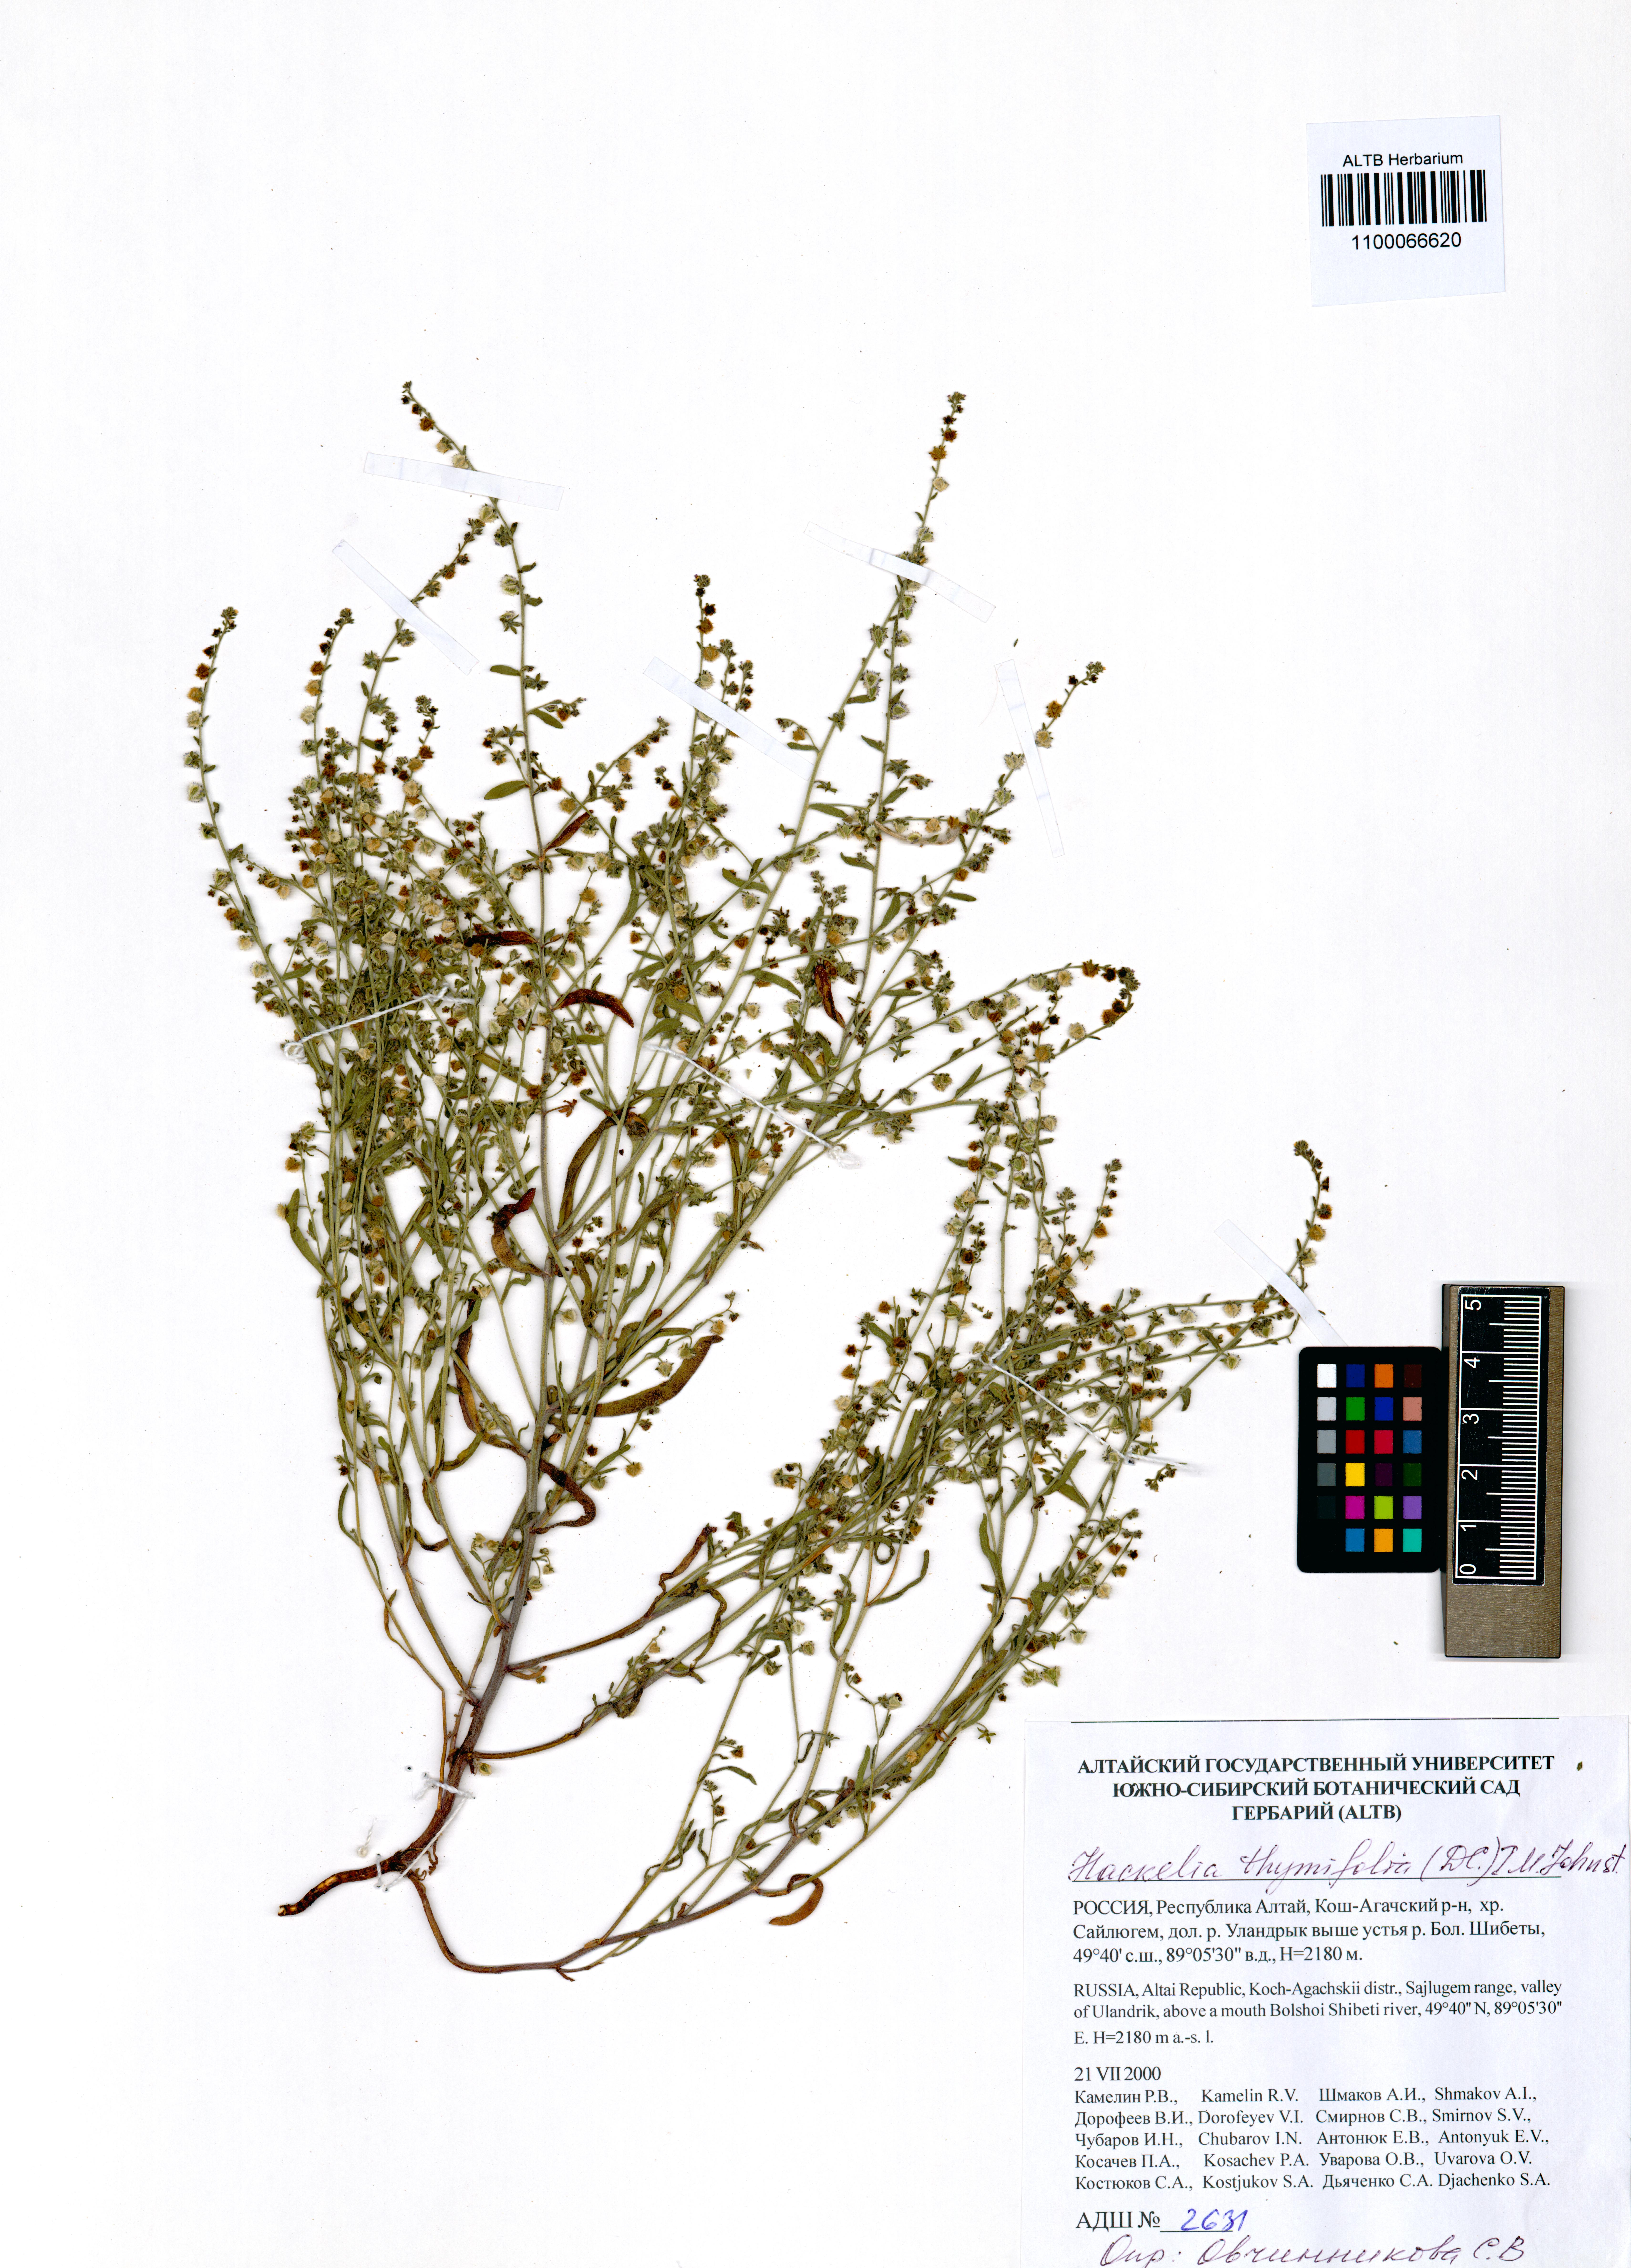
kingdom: Plantae
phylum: Tracheophyta
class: Magnoliopsida
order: Boraginales
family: Boraginaceae
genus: Eritrichium
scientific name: Eritrichium thymifolium
